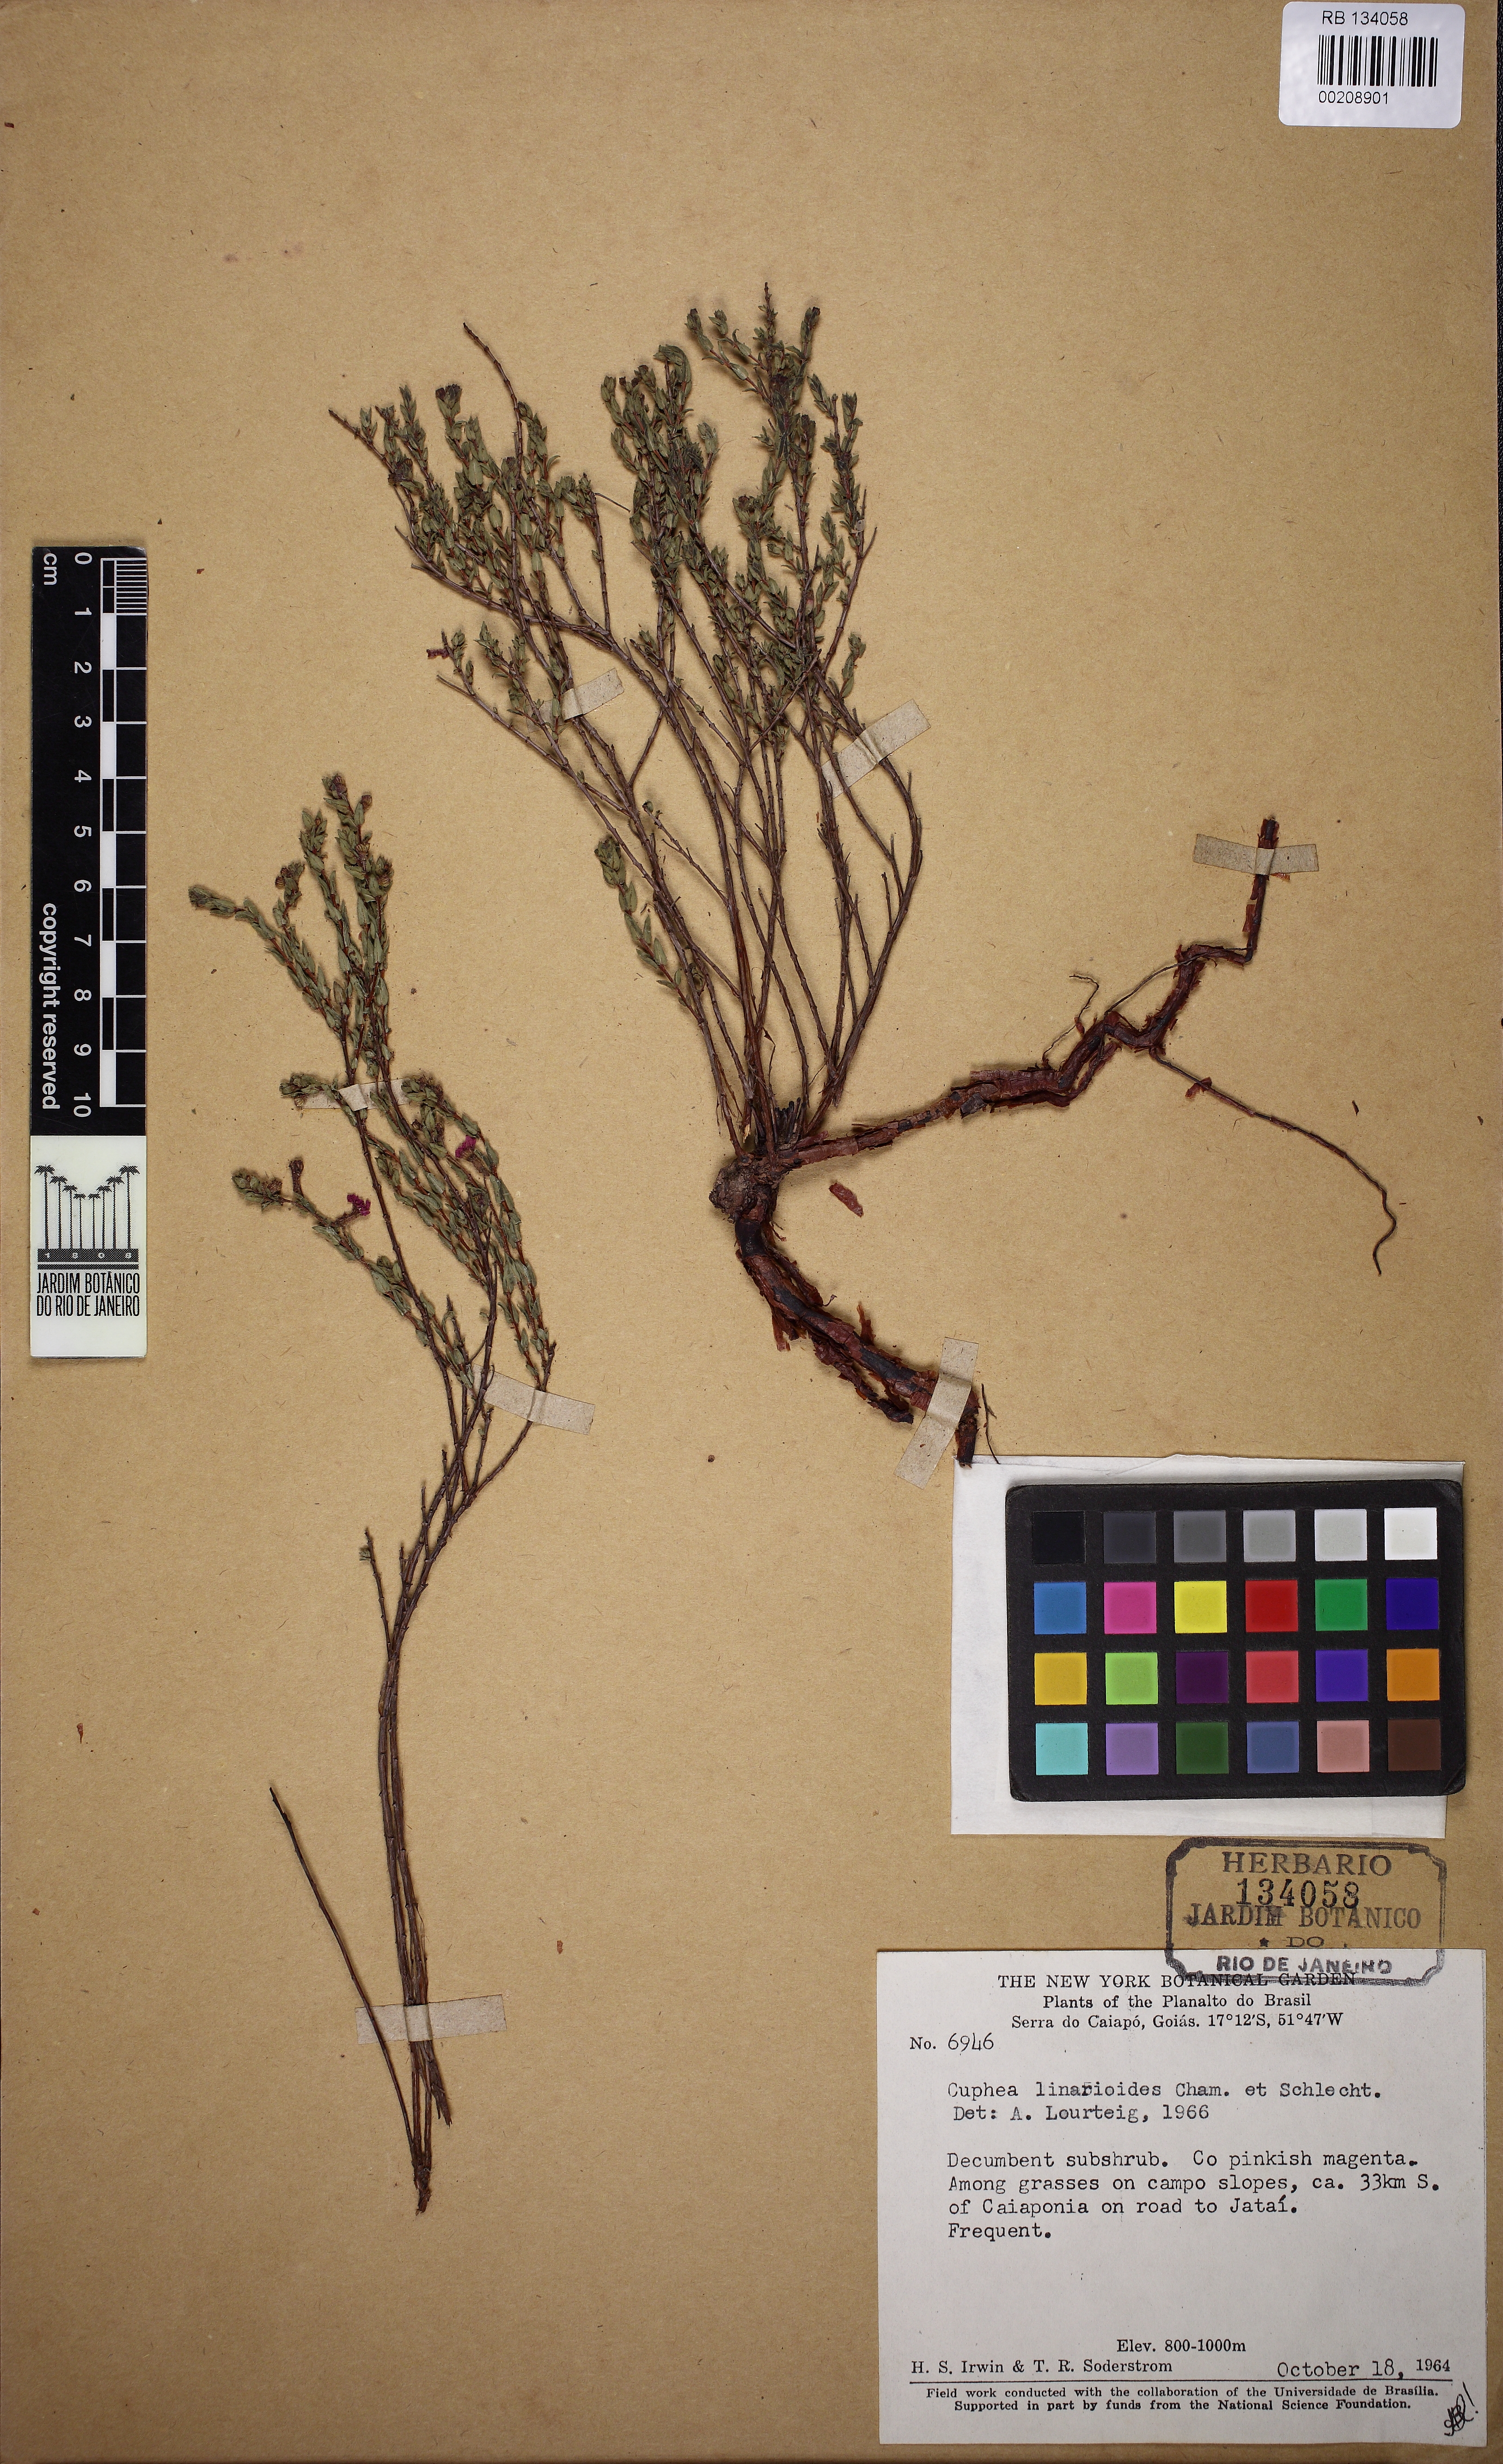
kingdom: Plantae
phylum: Tracheophyta
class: Magnoliopsida
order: Myrtales
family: Lythraceae
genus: Cuphea
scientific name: Cuphea linarioides
